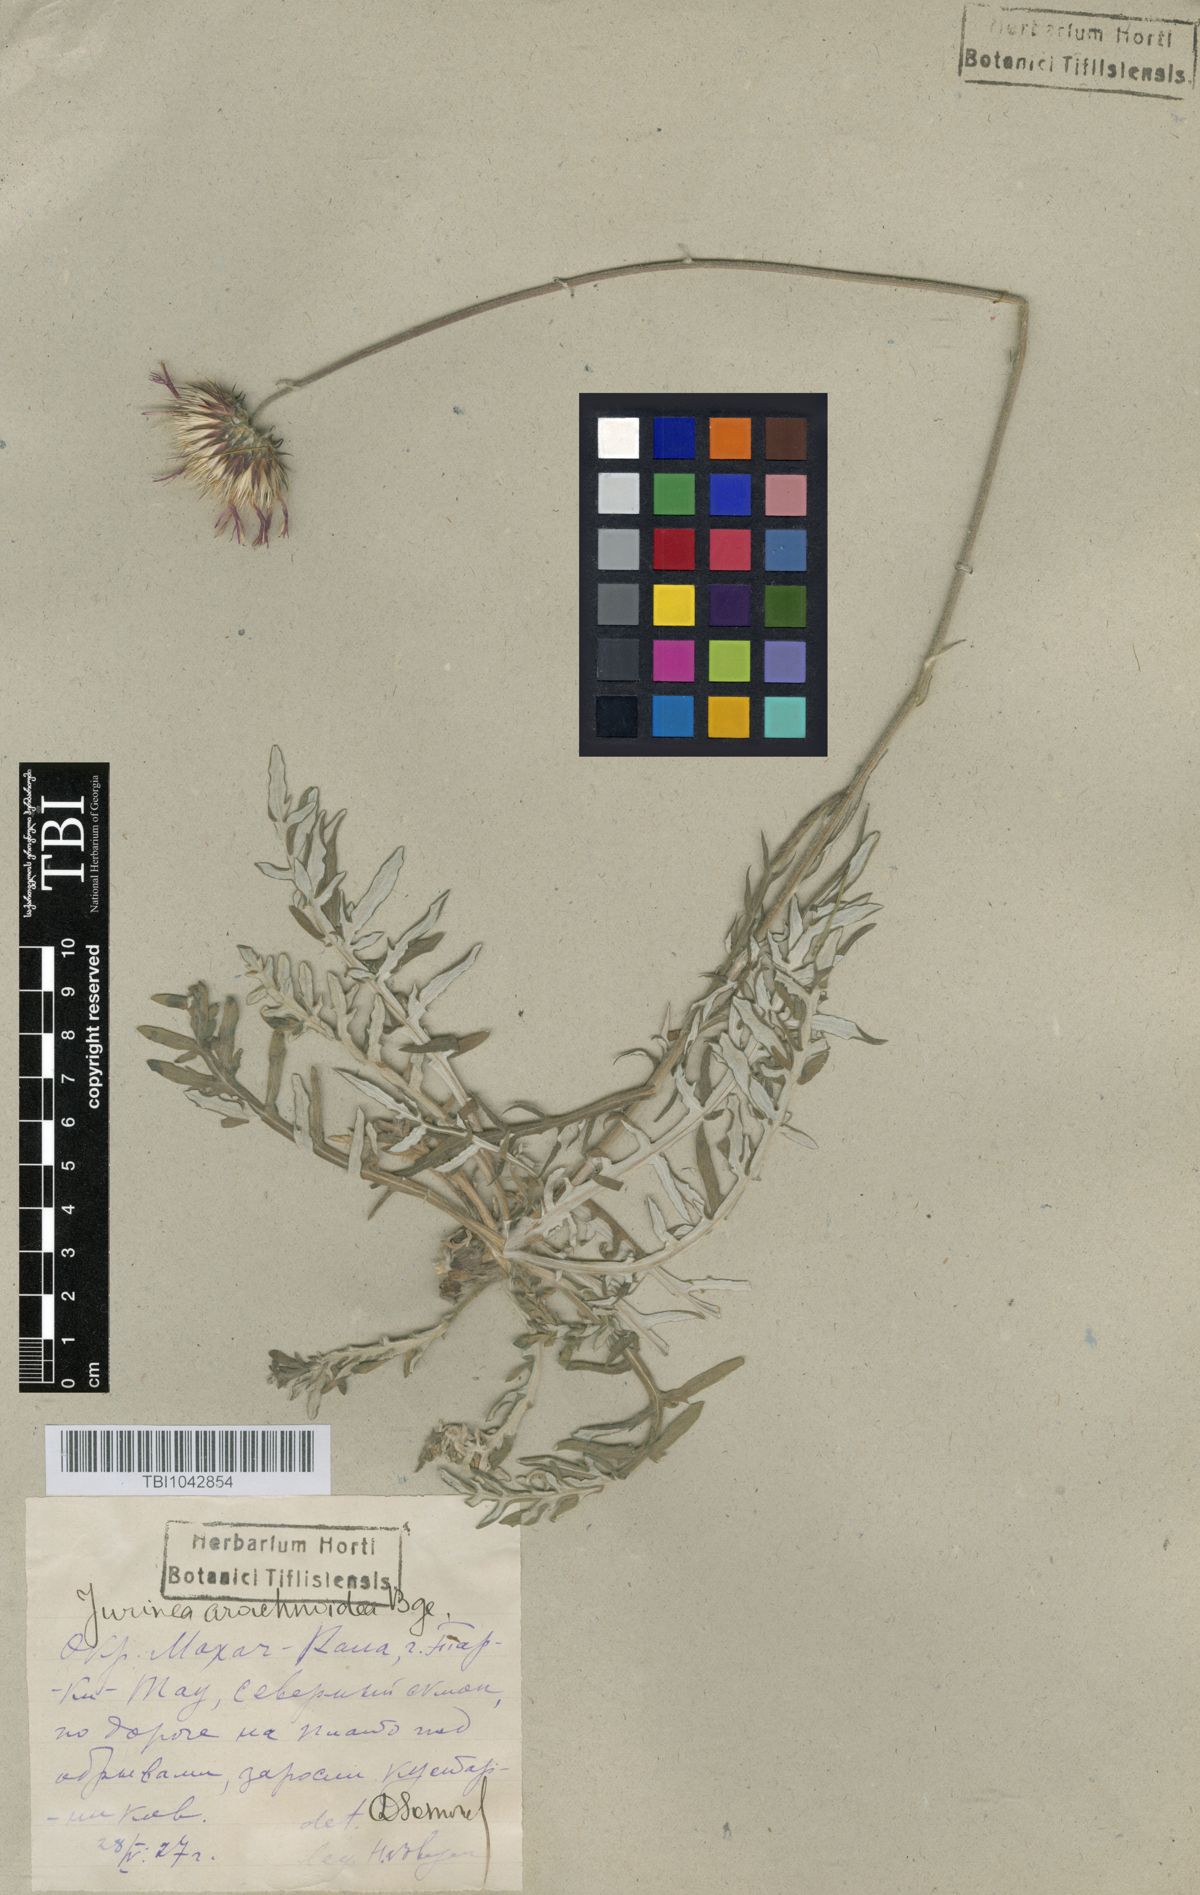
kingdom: Plantae
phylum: Tracheophyta
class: Magnoliopsida
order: Asterales
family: Asteraceae
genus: Jurinea
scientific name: Jurinea blanda
